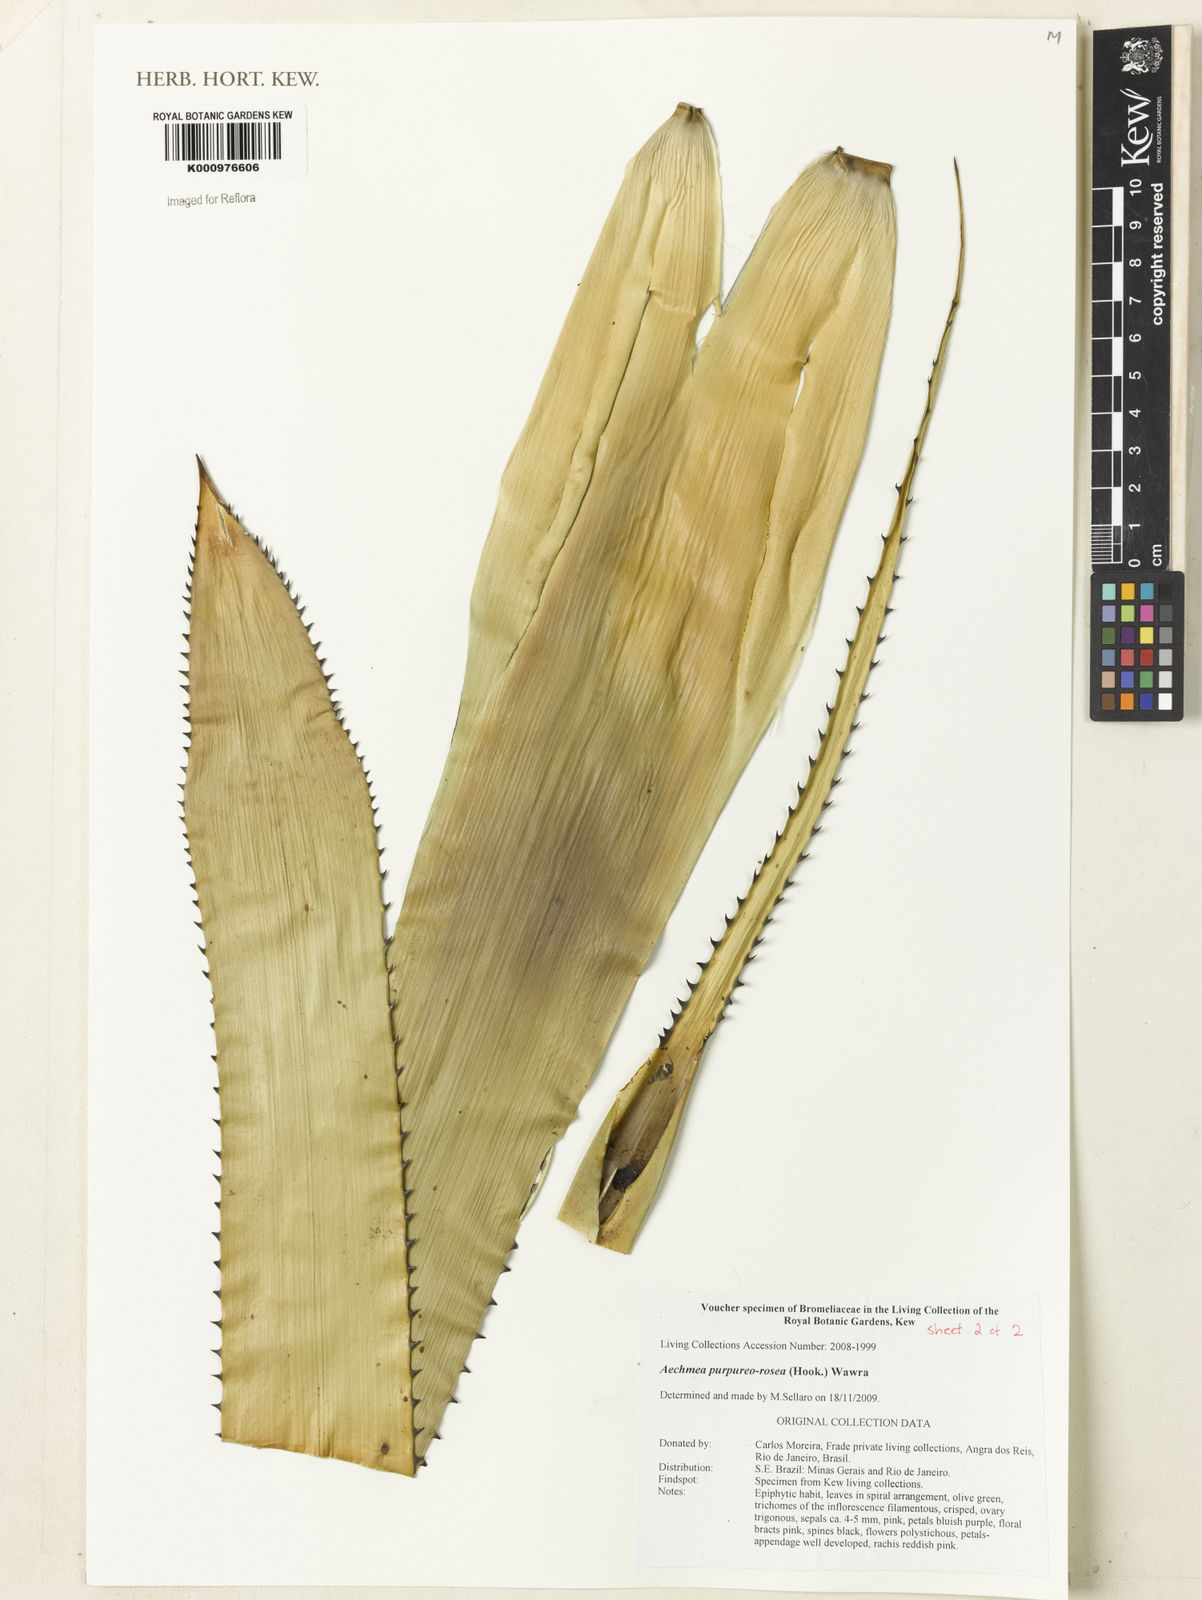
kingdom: Plantae
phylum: Tracheophyta
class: Liliopsida
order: Poales
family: Bromeliaceae
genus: Aechmea
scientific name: Aechmea purpureorosea
